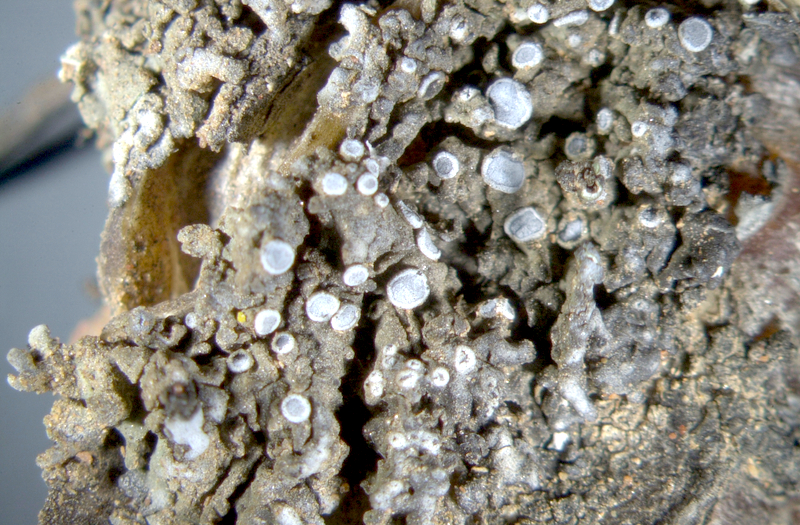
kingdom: Fungi
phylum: Ascomycota
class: Lecanoromycetes
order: Teloschistales
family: Teloschistaceae
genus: Caloplaca
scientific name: Caloplaca
